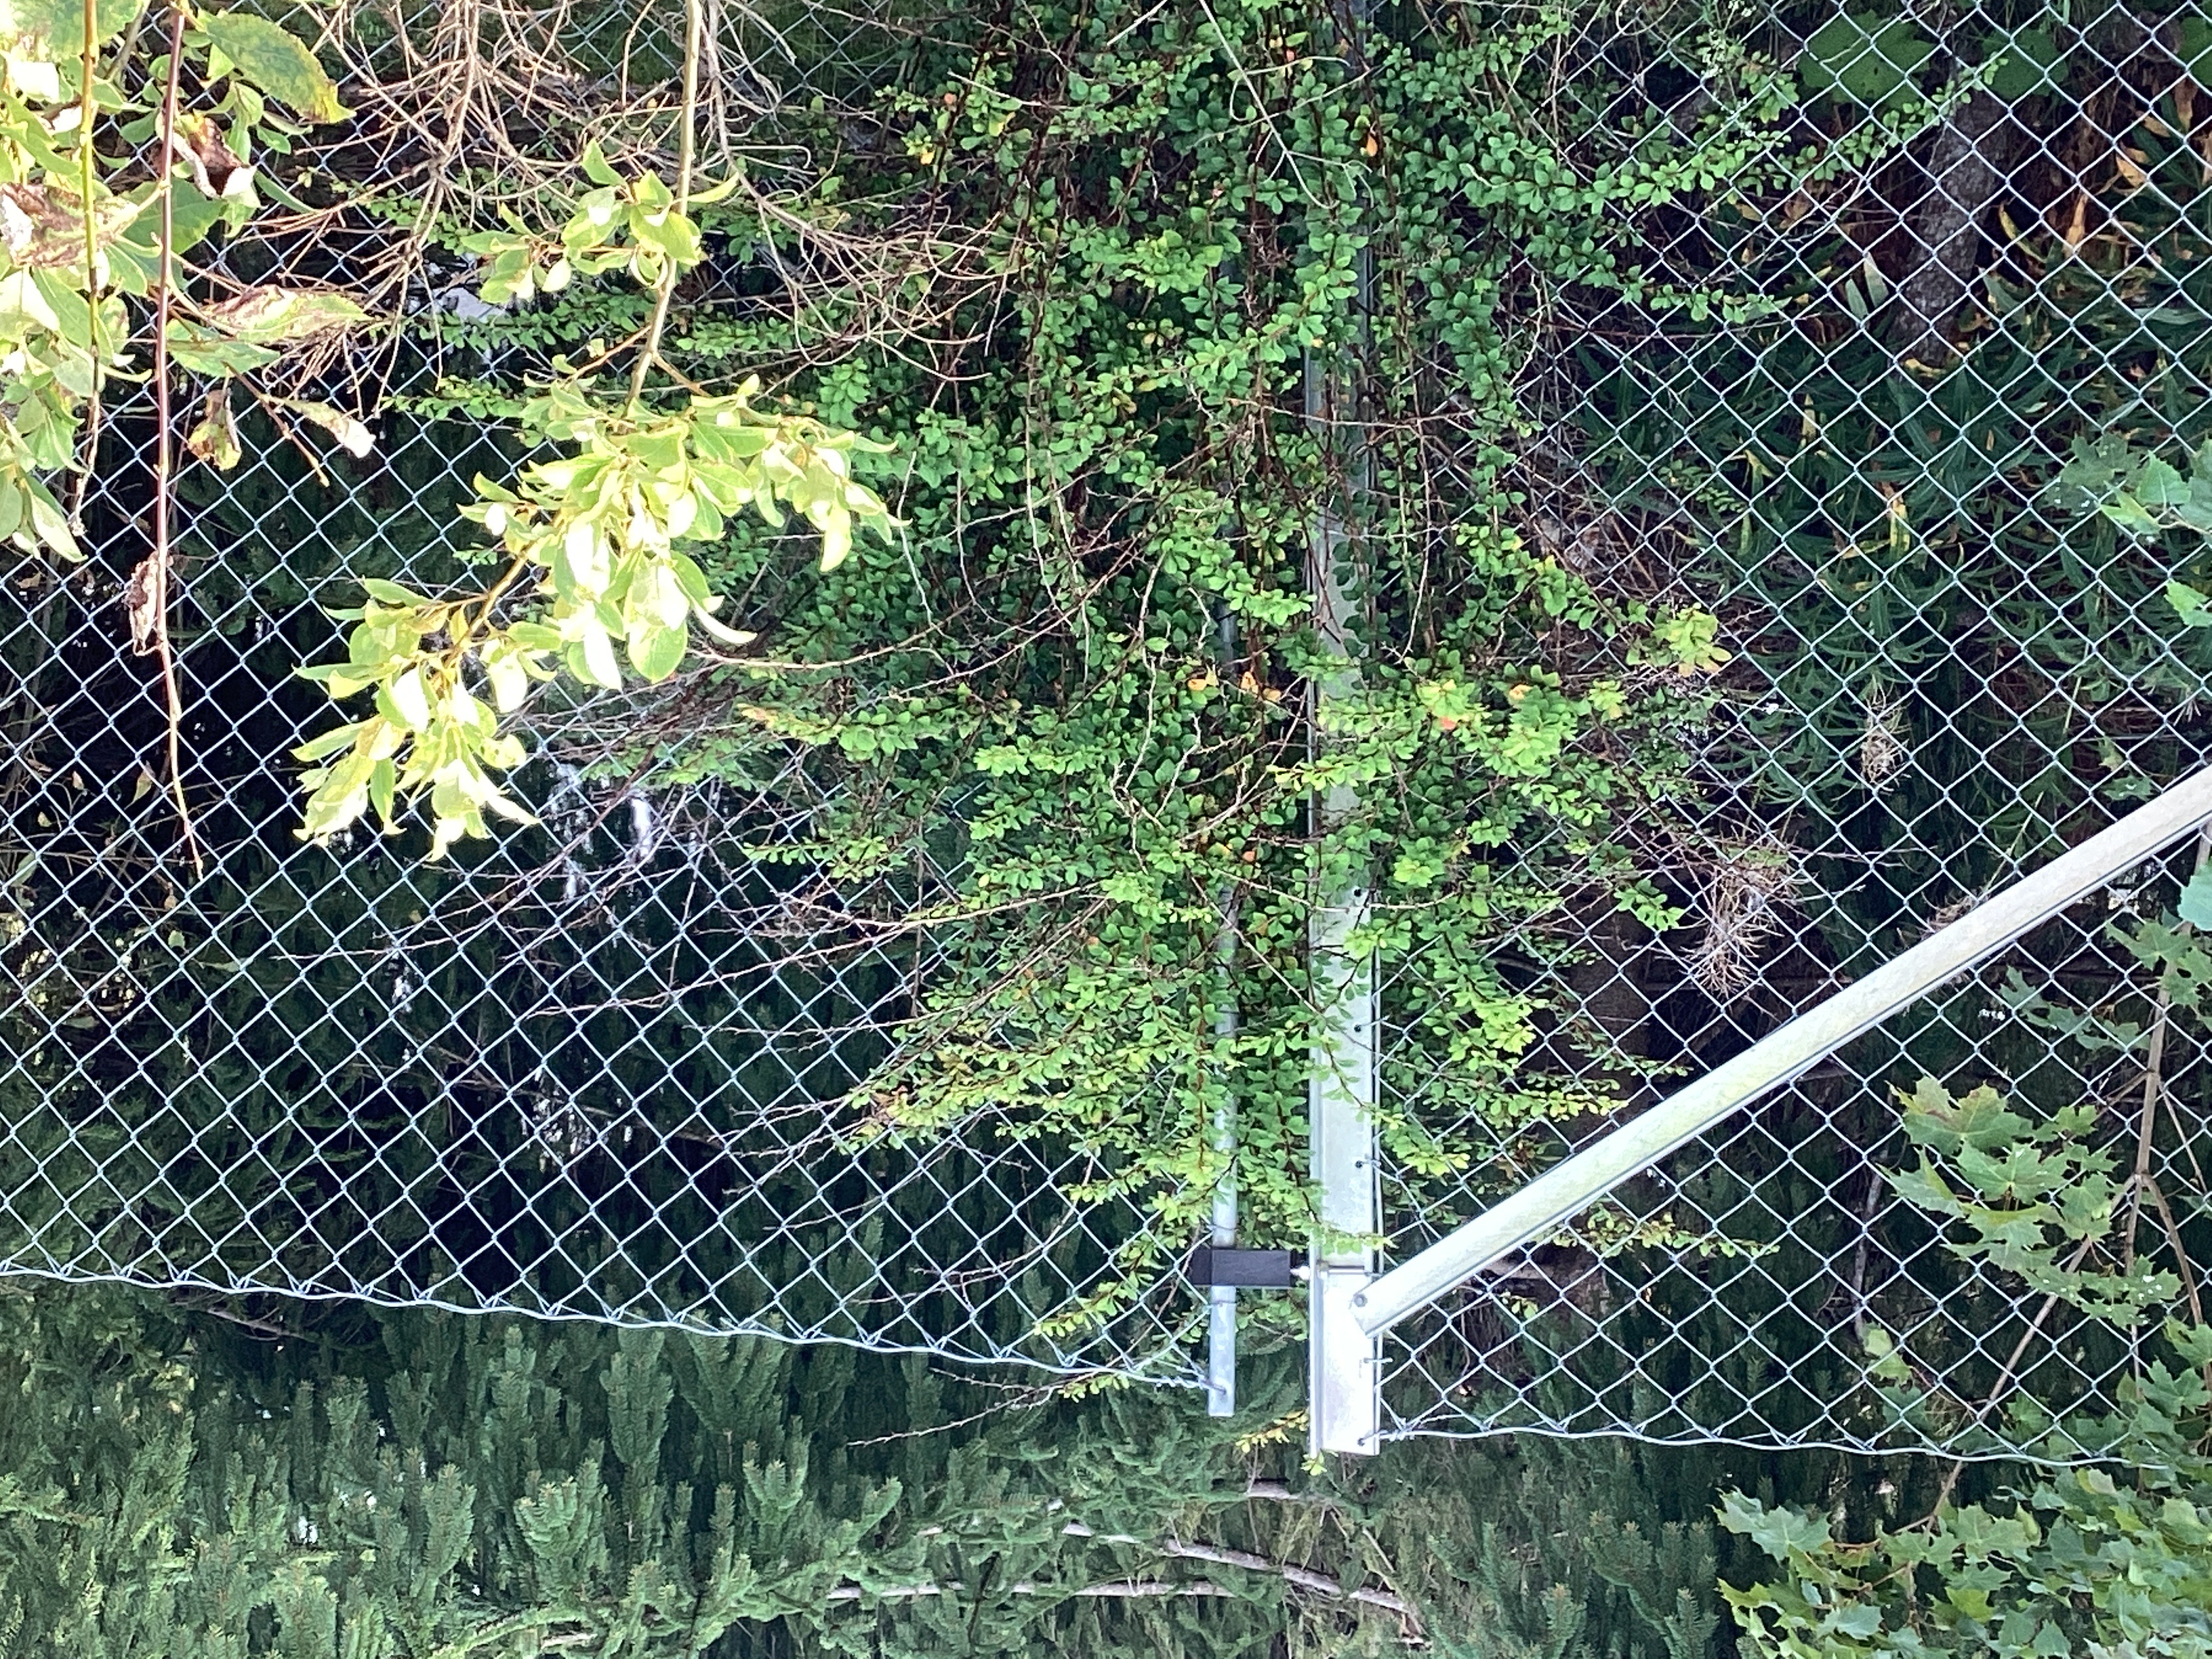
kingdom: Plantae
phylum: Tracheophyta
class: Magnoliopsida
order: Ranunculales
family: Berberidaceae
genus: Berberis
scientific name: Berberis thunbergii
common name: høstberberis
